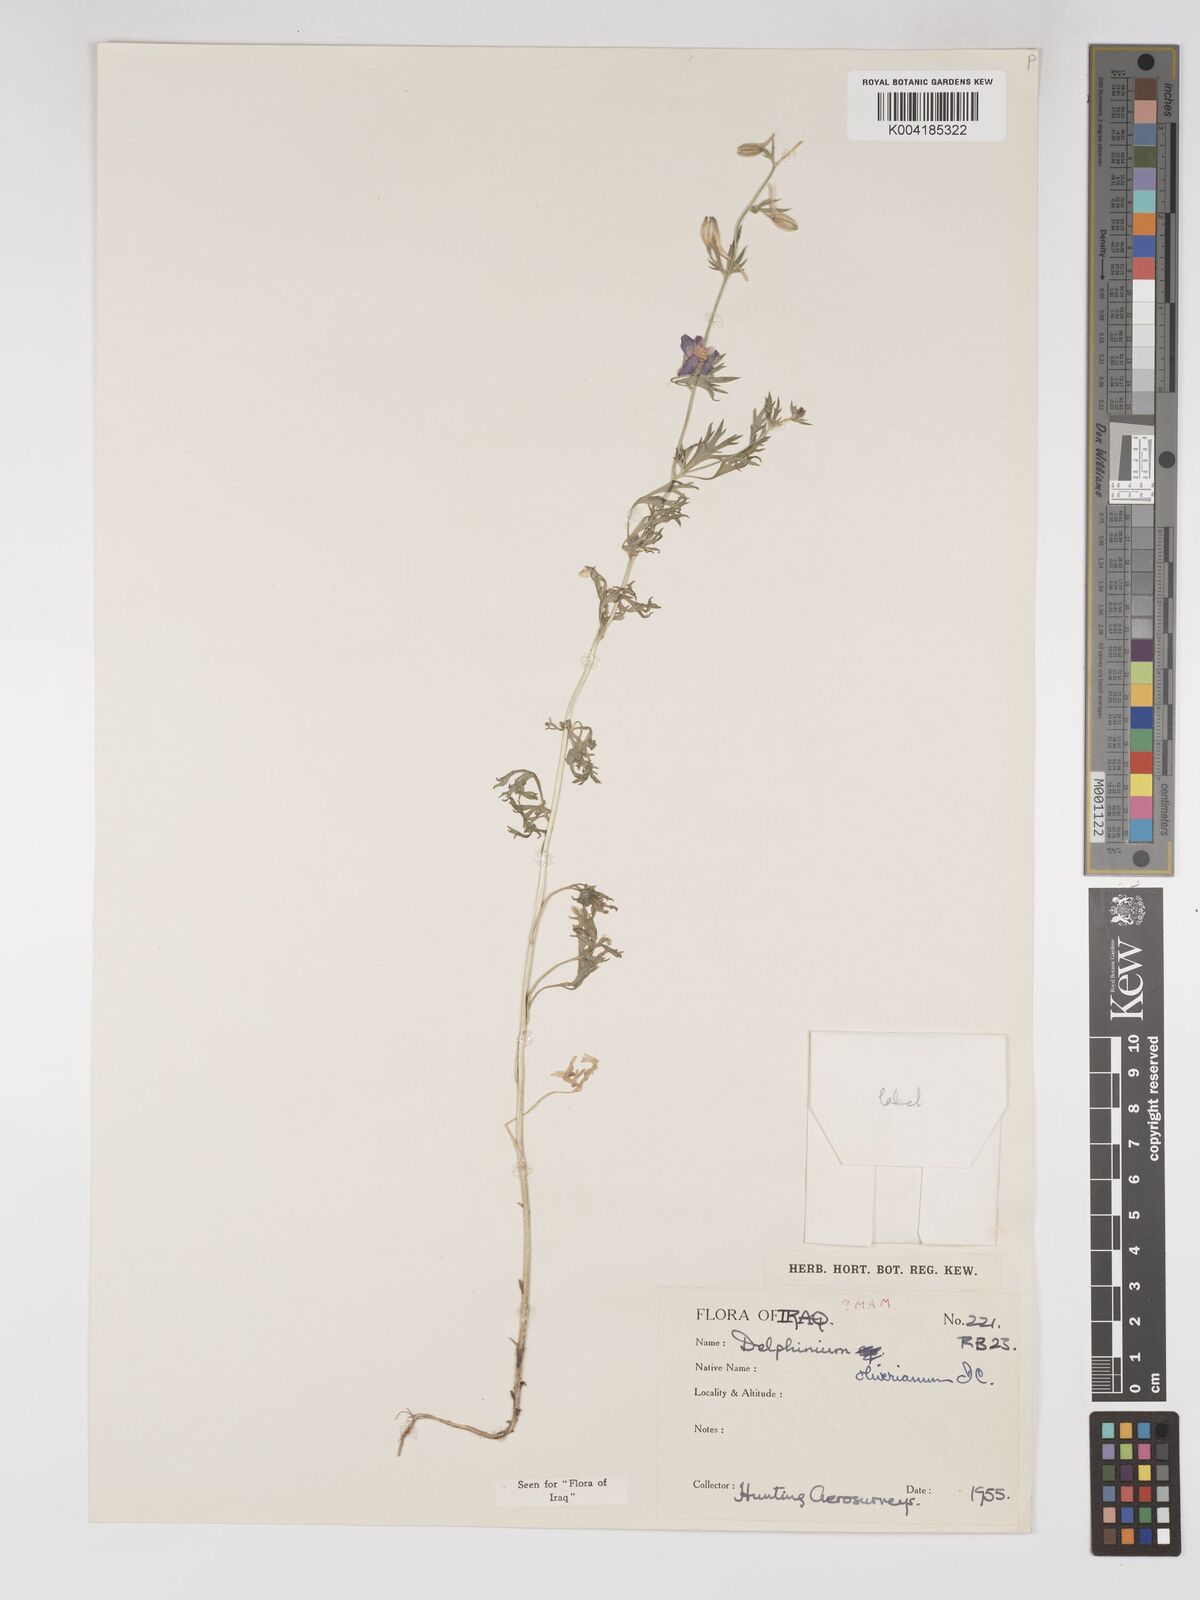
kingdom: Plantae
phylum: Tracheophyta
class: Magnoliopsida
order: Ranunculales
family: Ranunculaceae
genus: Delphinium
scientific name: Delphinium oliverianum
